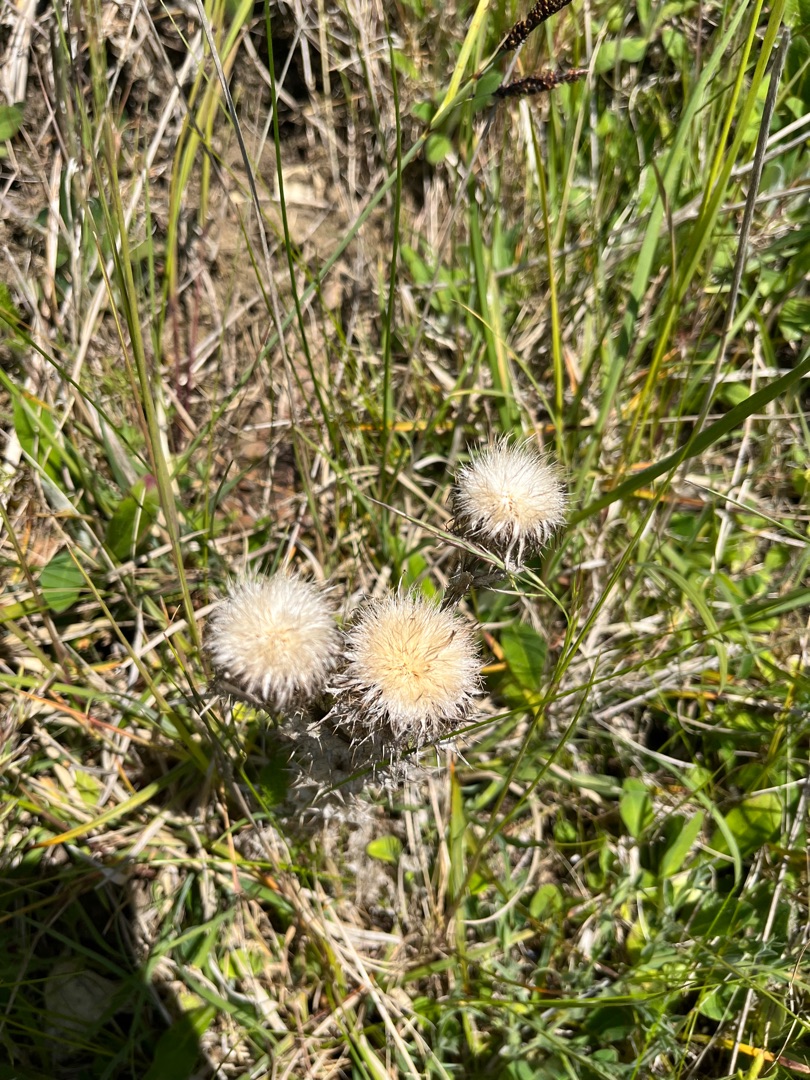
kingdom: Plantae
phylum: Tracheophyta
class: Magnoliopsida
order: Asterales
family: Asteraceae
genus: Carlina
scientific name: Carlina vulgaris
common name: Bakketidsel
